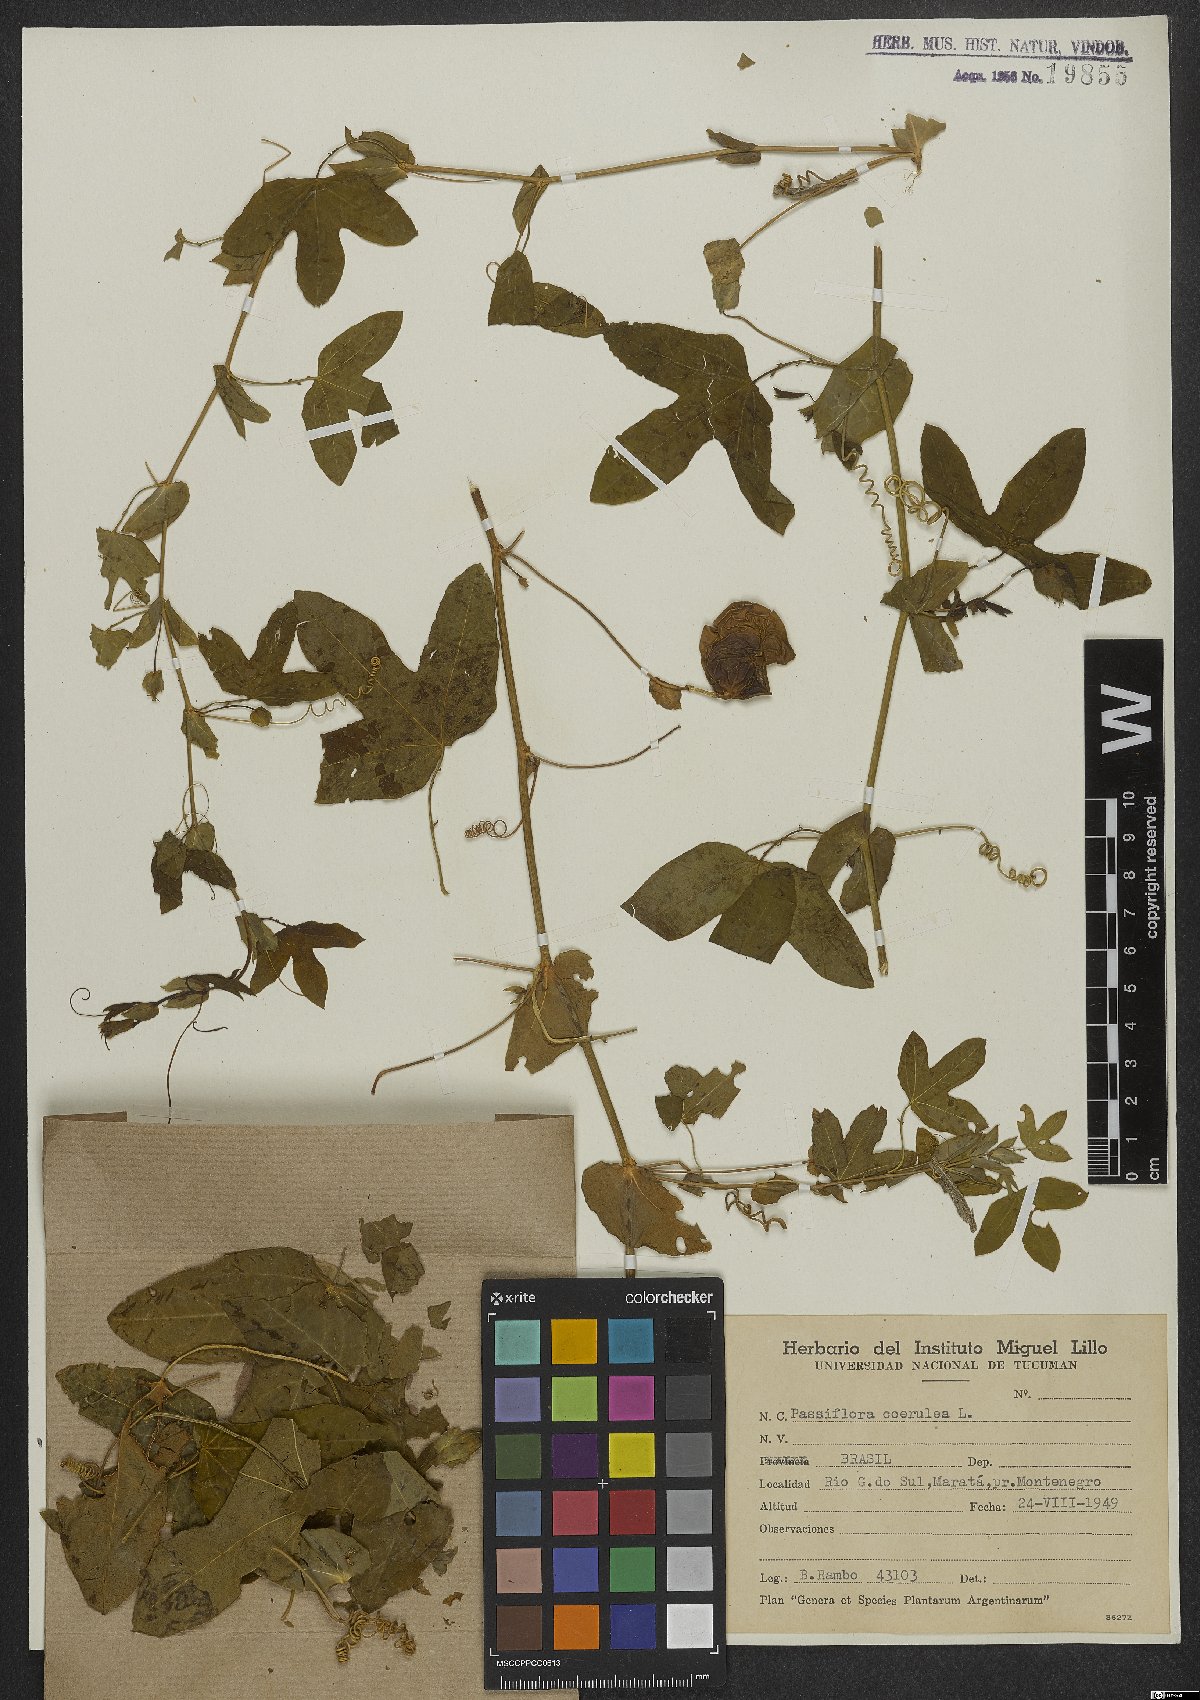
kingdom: Plantae
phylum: Tracheophyta
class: Magnoliopsida
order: Malpighiales
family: Passifloraceae
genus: Passiflora
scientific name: Passiflora caerulea
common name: Blue passionflower
